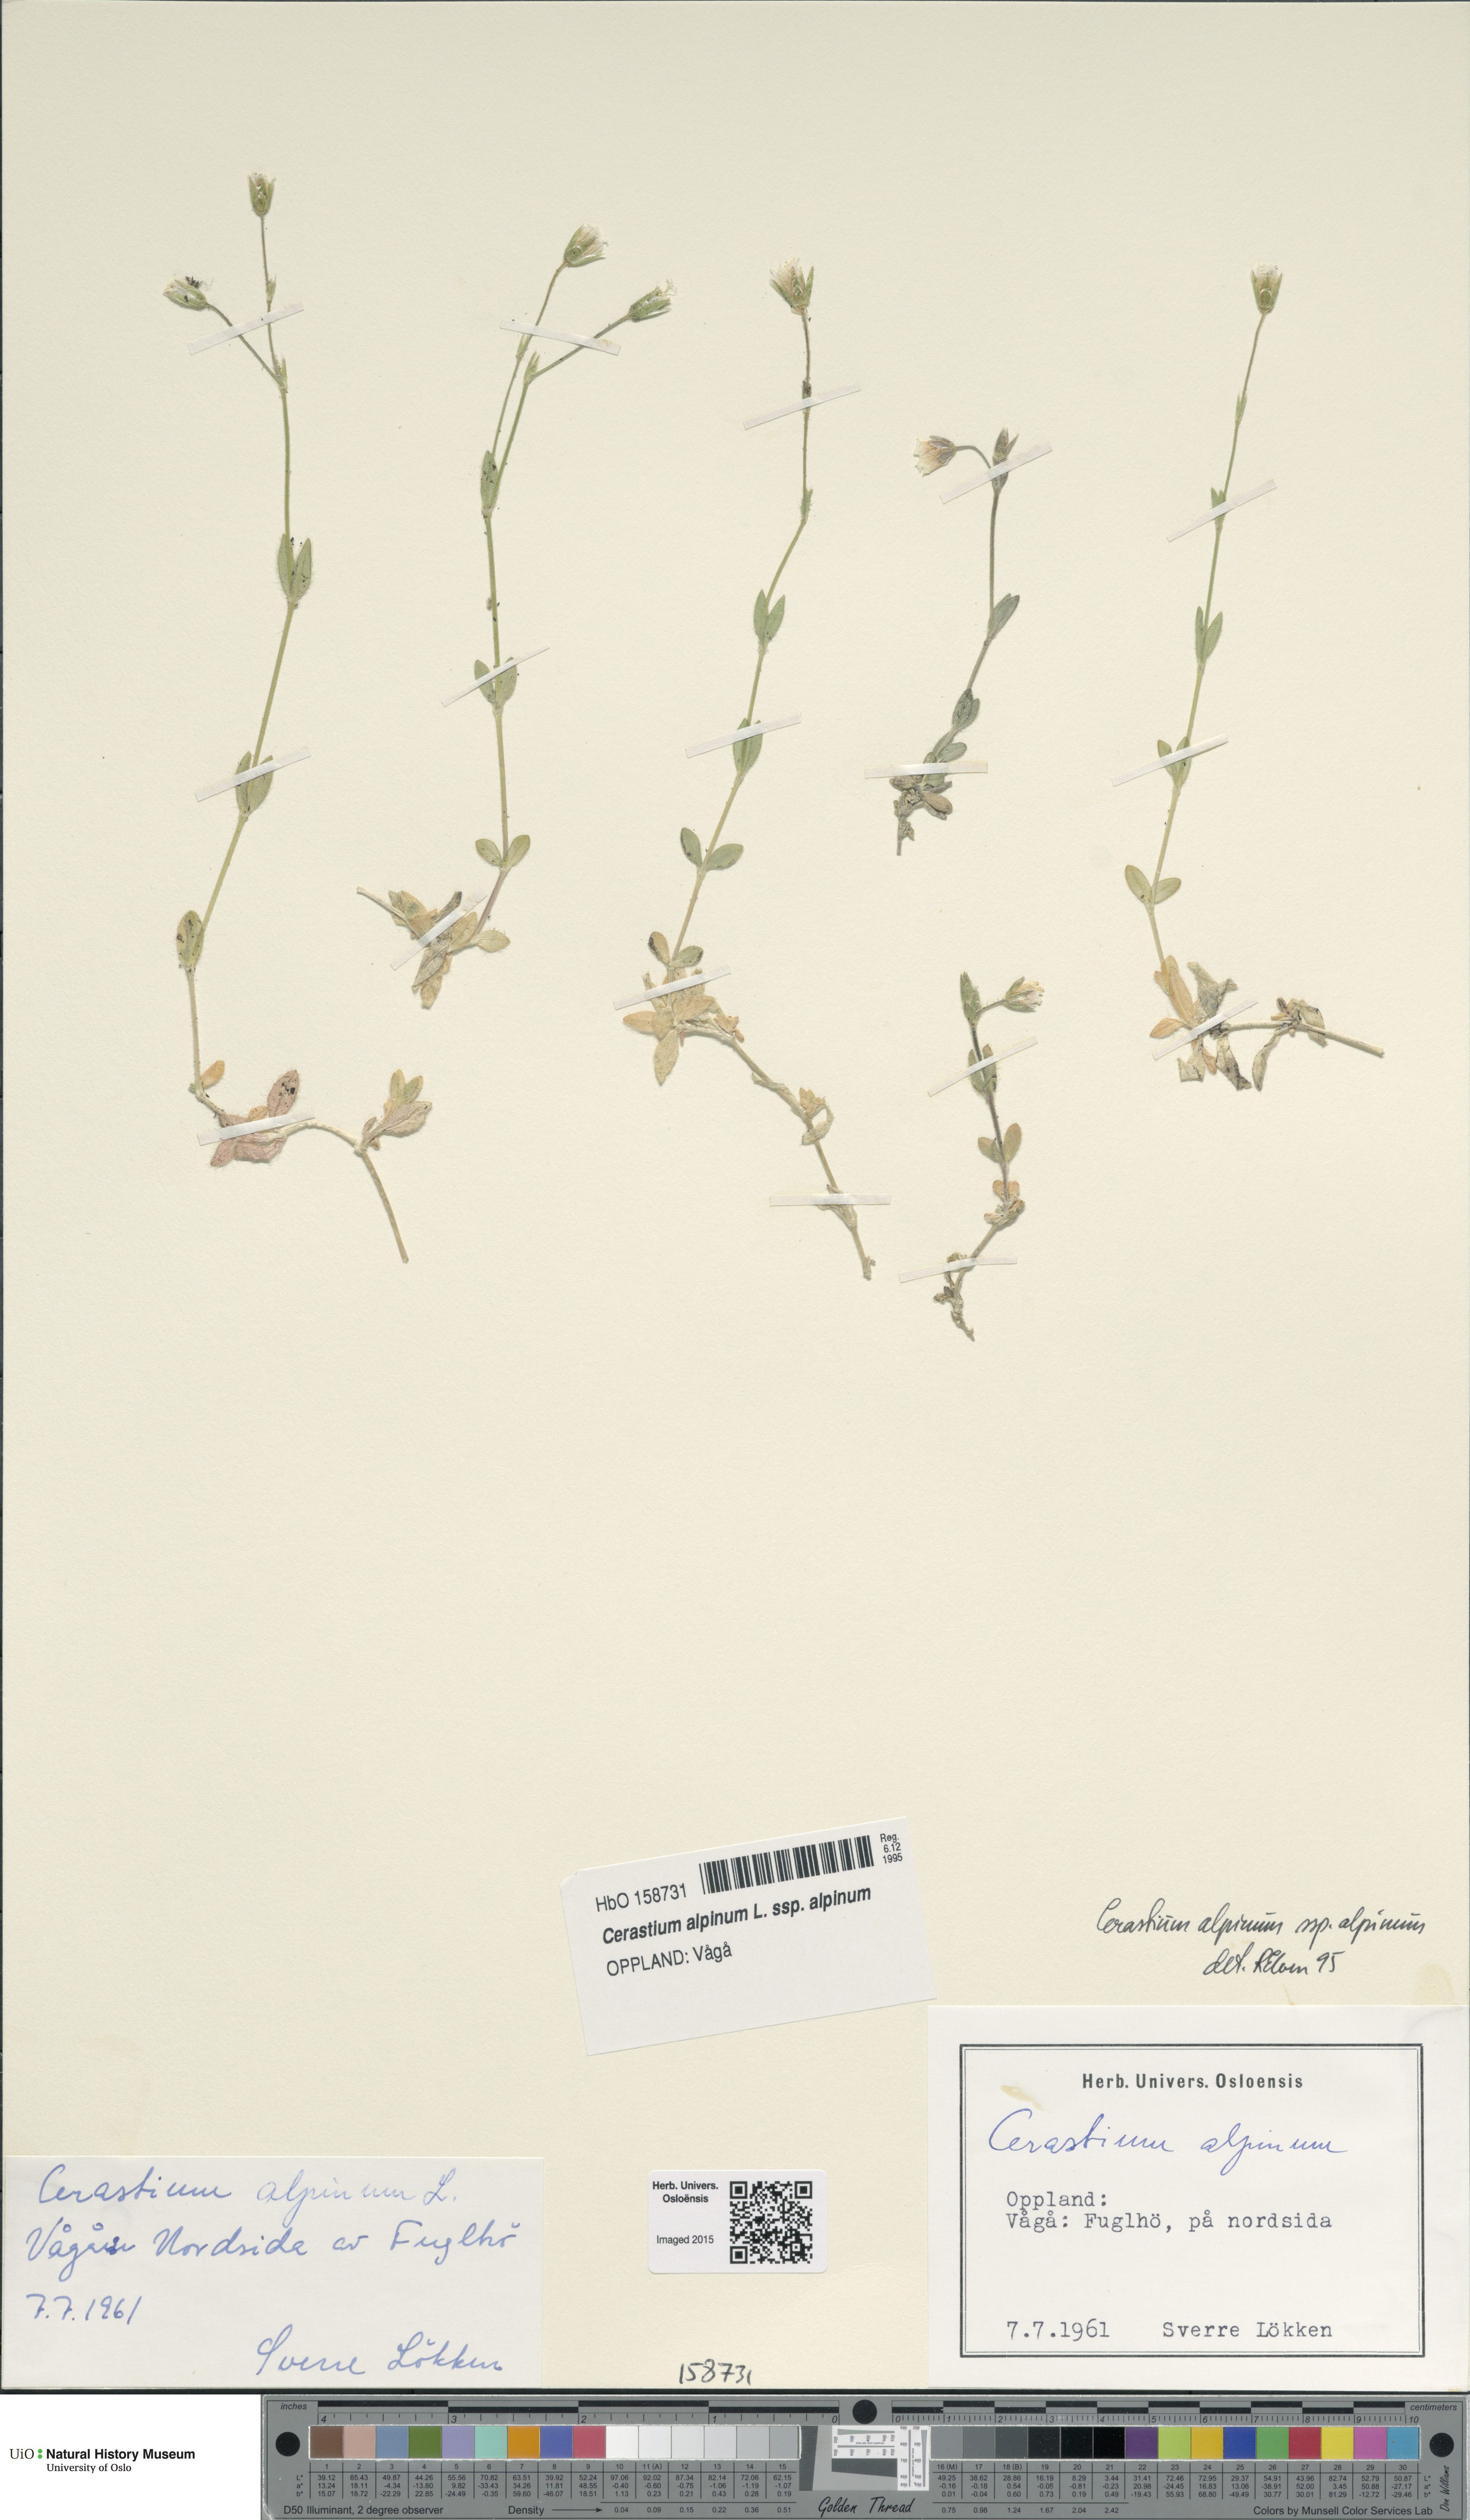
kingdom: Plantae
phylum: Tracheophyta
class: Magnoliopsida
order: Caryophyllales
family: Caryophyllaceae
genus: Cerastium
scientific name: Cerastium alpinum
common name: Alpine mouse-ear
